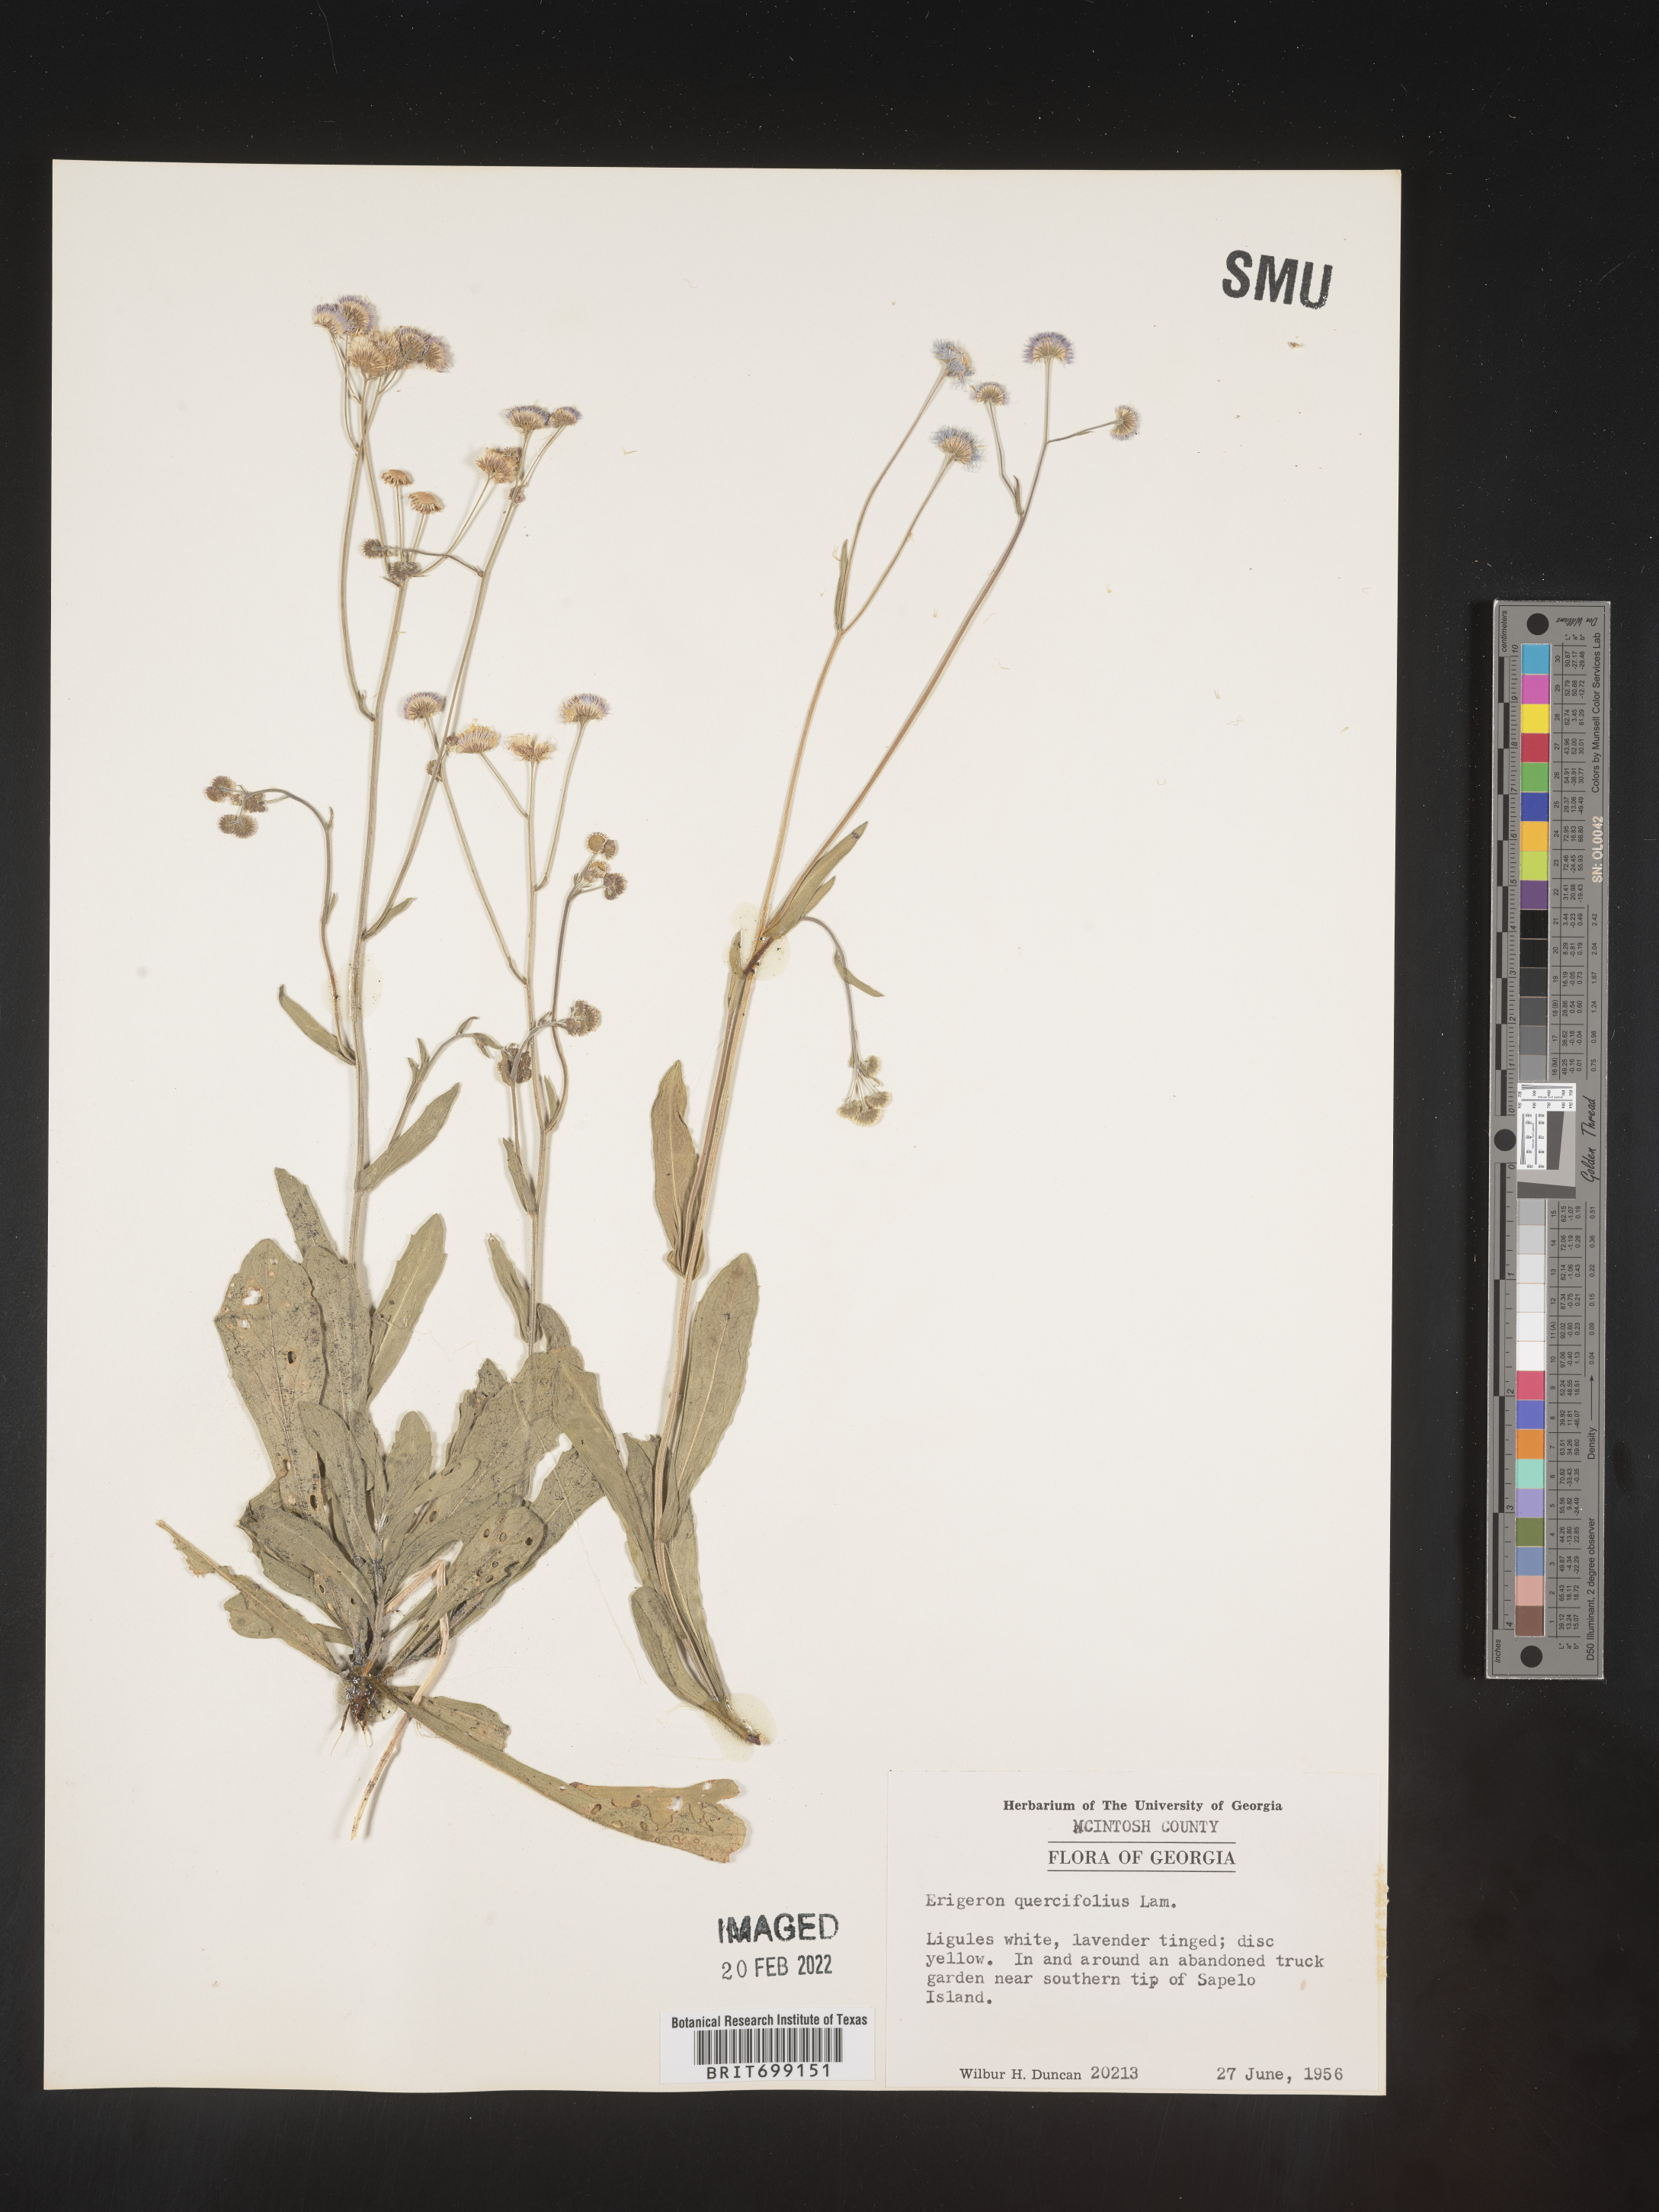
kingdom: Plantae
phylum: Tracheophyta
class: Magnoliopsida
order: Asterales
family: Asteraceae
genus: Erigeron
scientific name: Erigeron quercifolius
